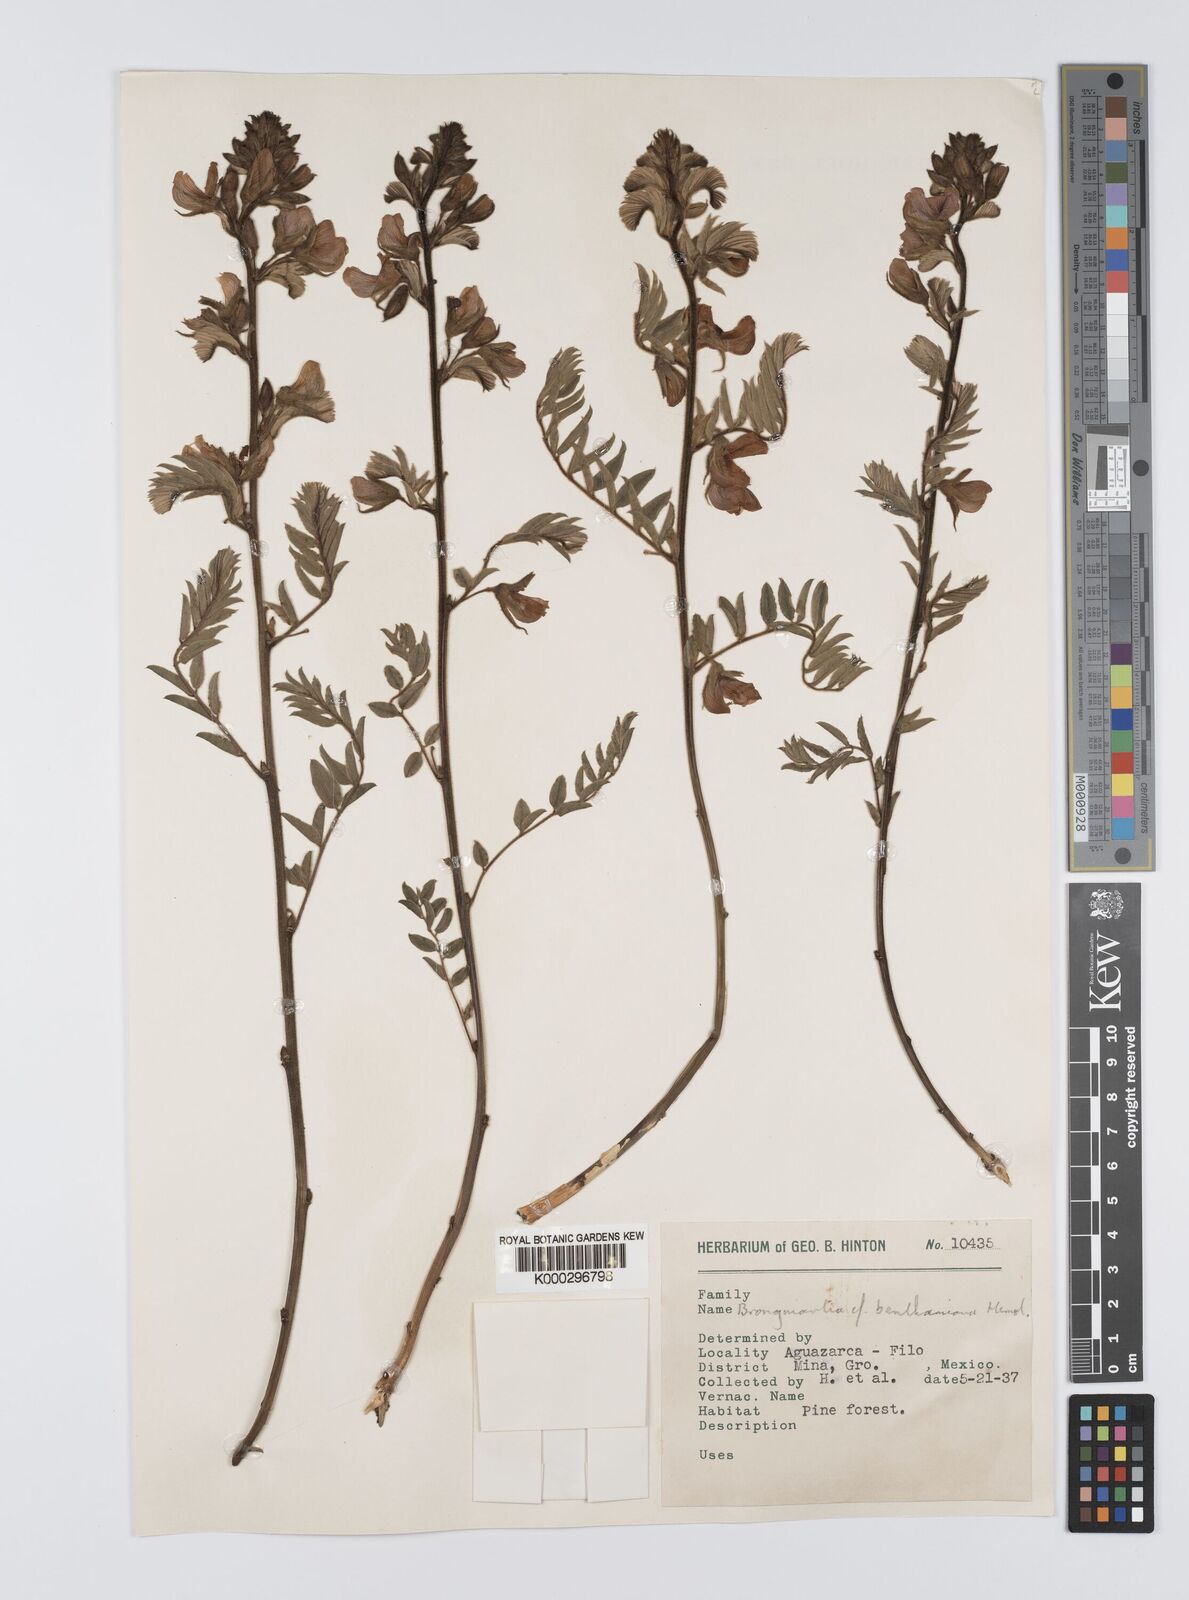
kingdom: Plantae
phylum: Tracheophyta
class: Magnoliopsida
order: Fabales
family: Fabaceae
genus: Brongniartia
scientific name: Brongniartia benthamiana
